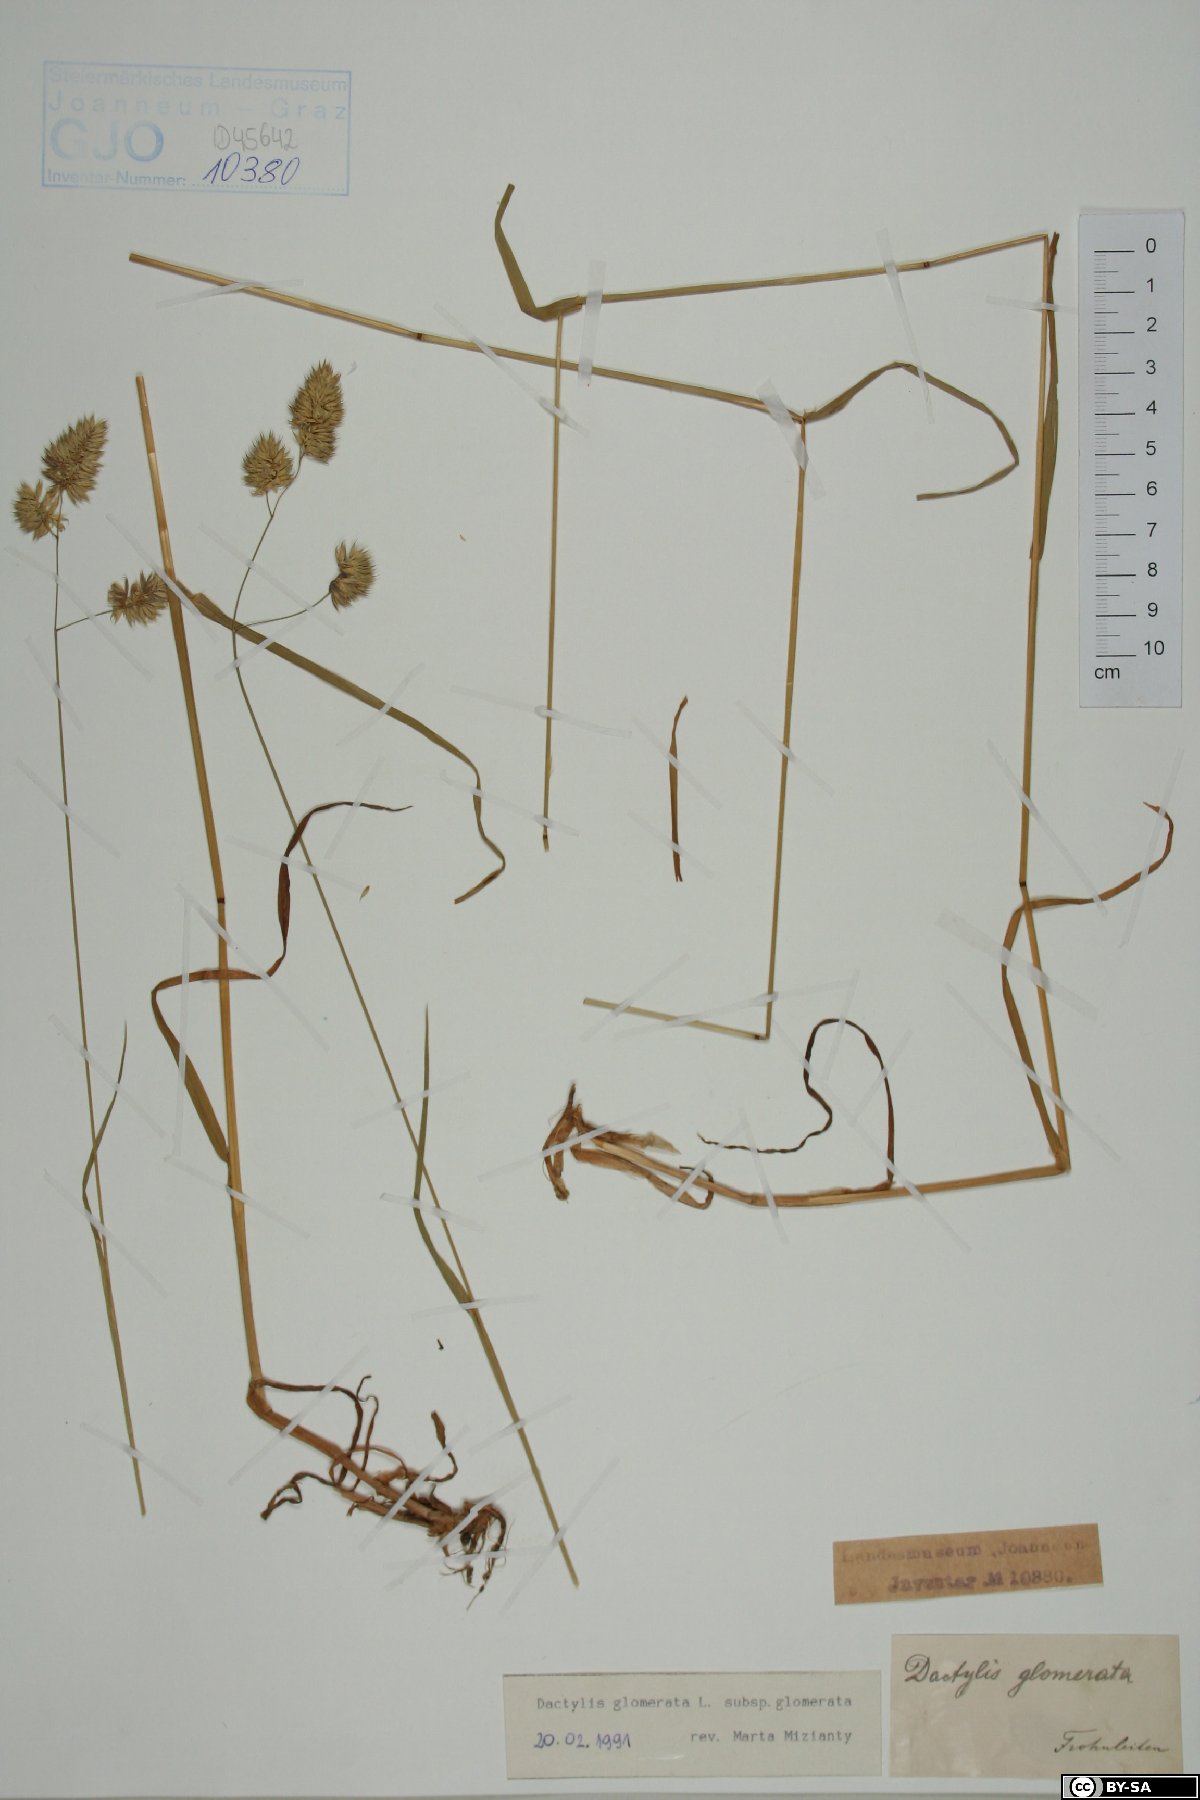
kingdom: Plantae
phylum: Tracheophyta
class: Liliopsida
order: Poales
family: Poaceae
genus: Dactylis
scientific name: Dactylis glomerata
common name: Orchardgrass
